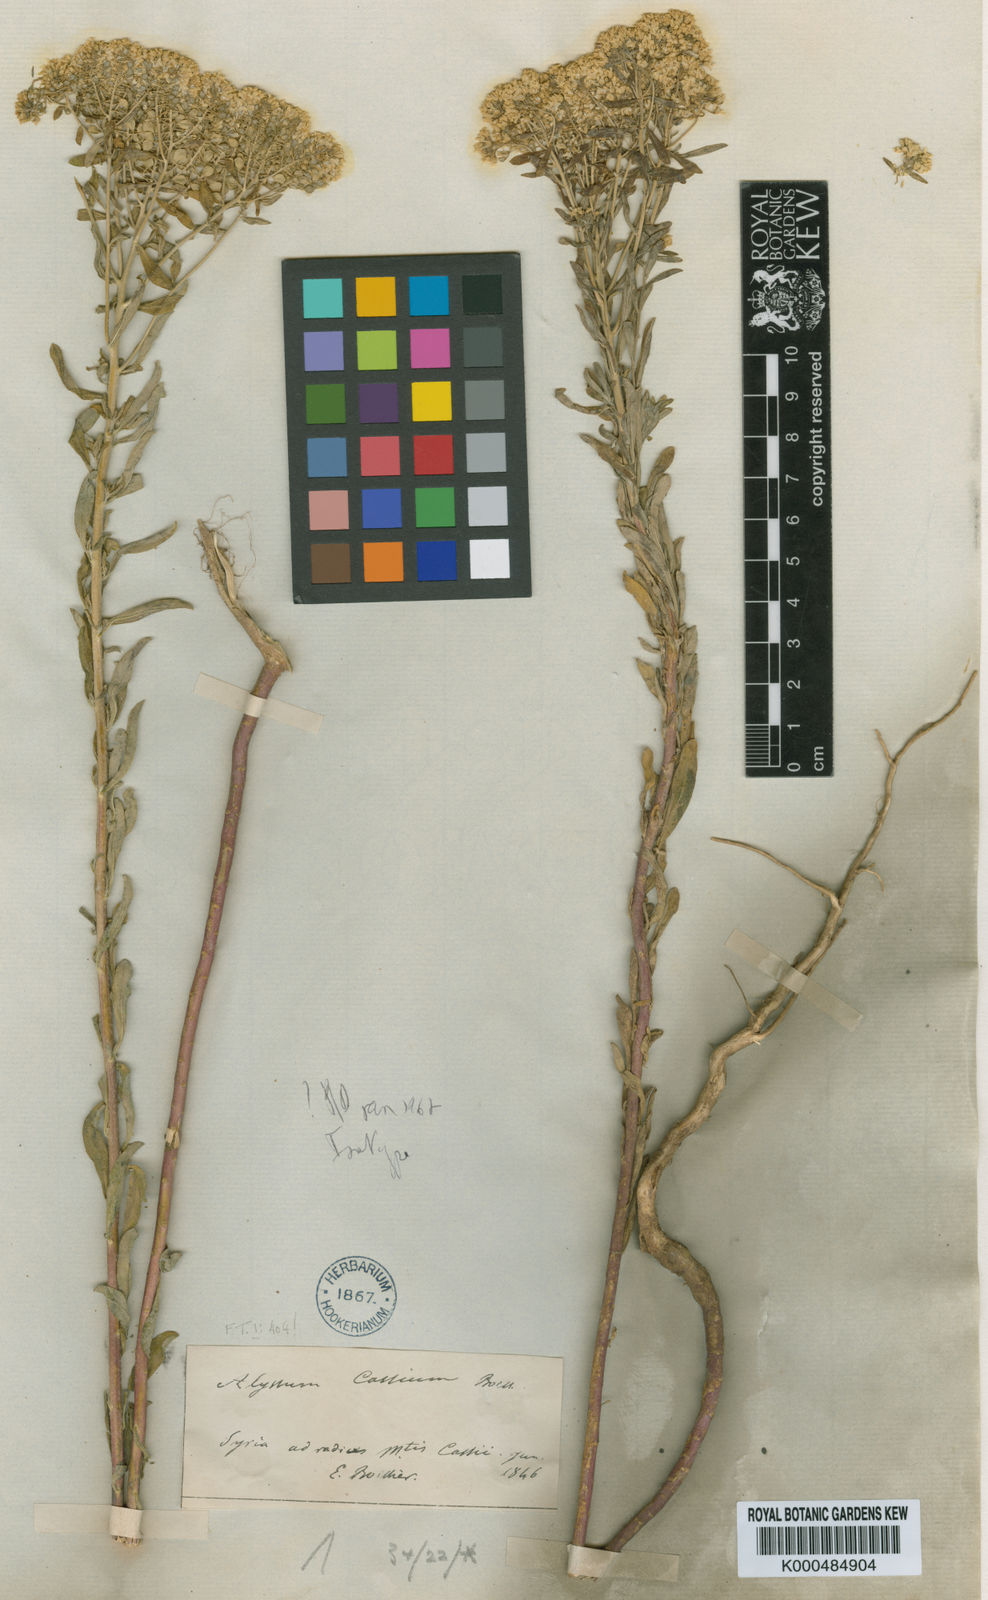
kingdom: Plantae
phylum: Tracheophyta
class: Magnoliopsida
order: Brassicales
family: Brassicaceae
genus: Odontarrhena
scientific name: Odontarrhena
